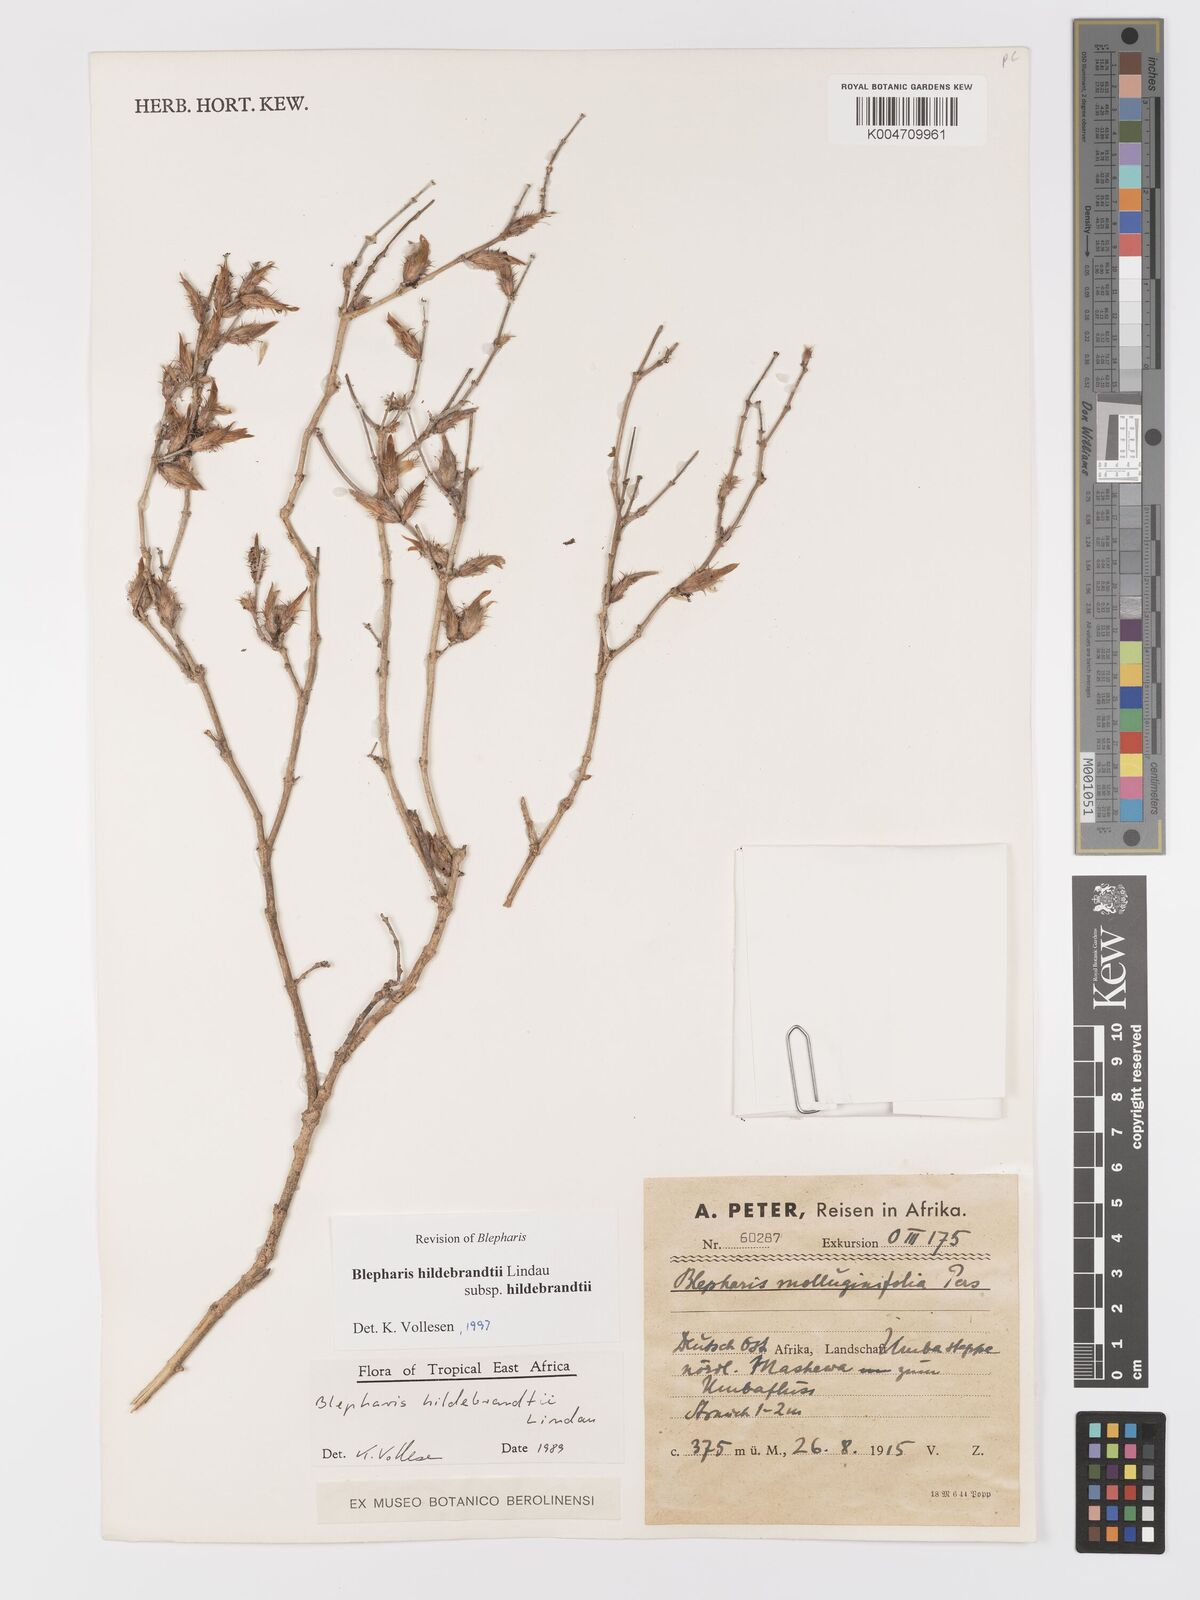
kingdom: Plantae
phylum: Tracheophyta
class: Magnoliopsida
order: Lamiales
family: Acanthaceae
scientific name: Acanthaceae
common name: Acanthaceae
